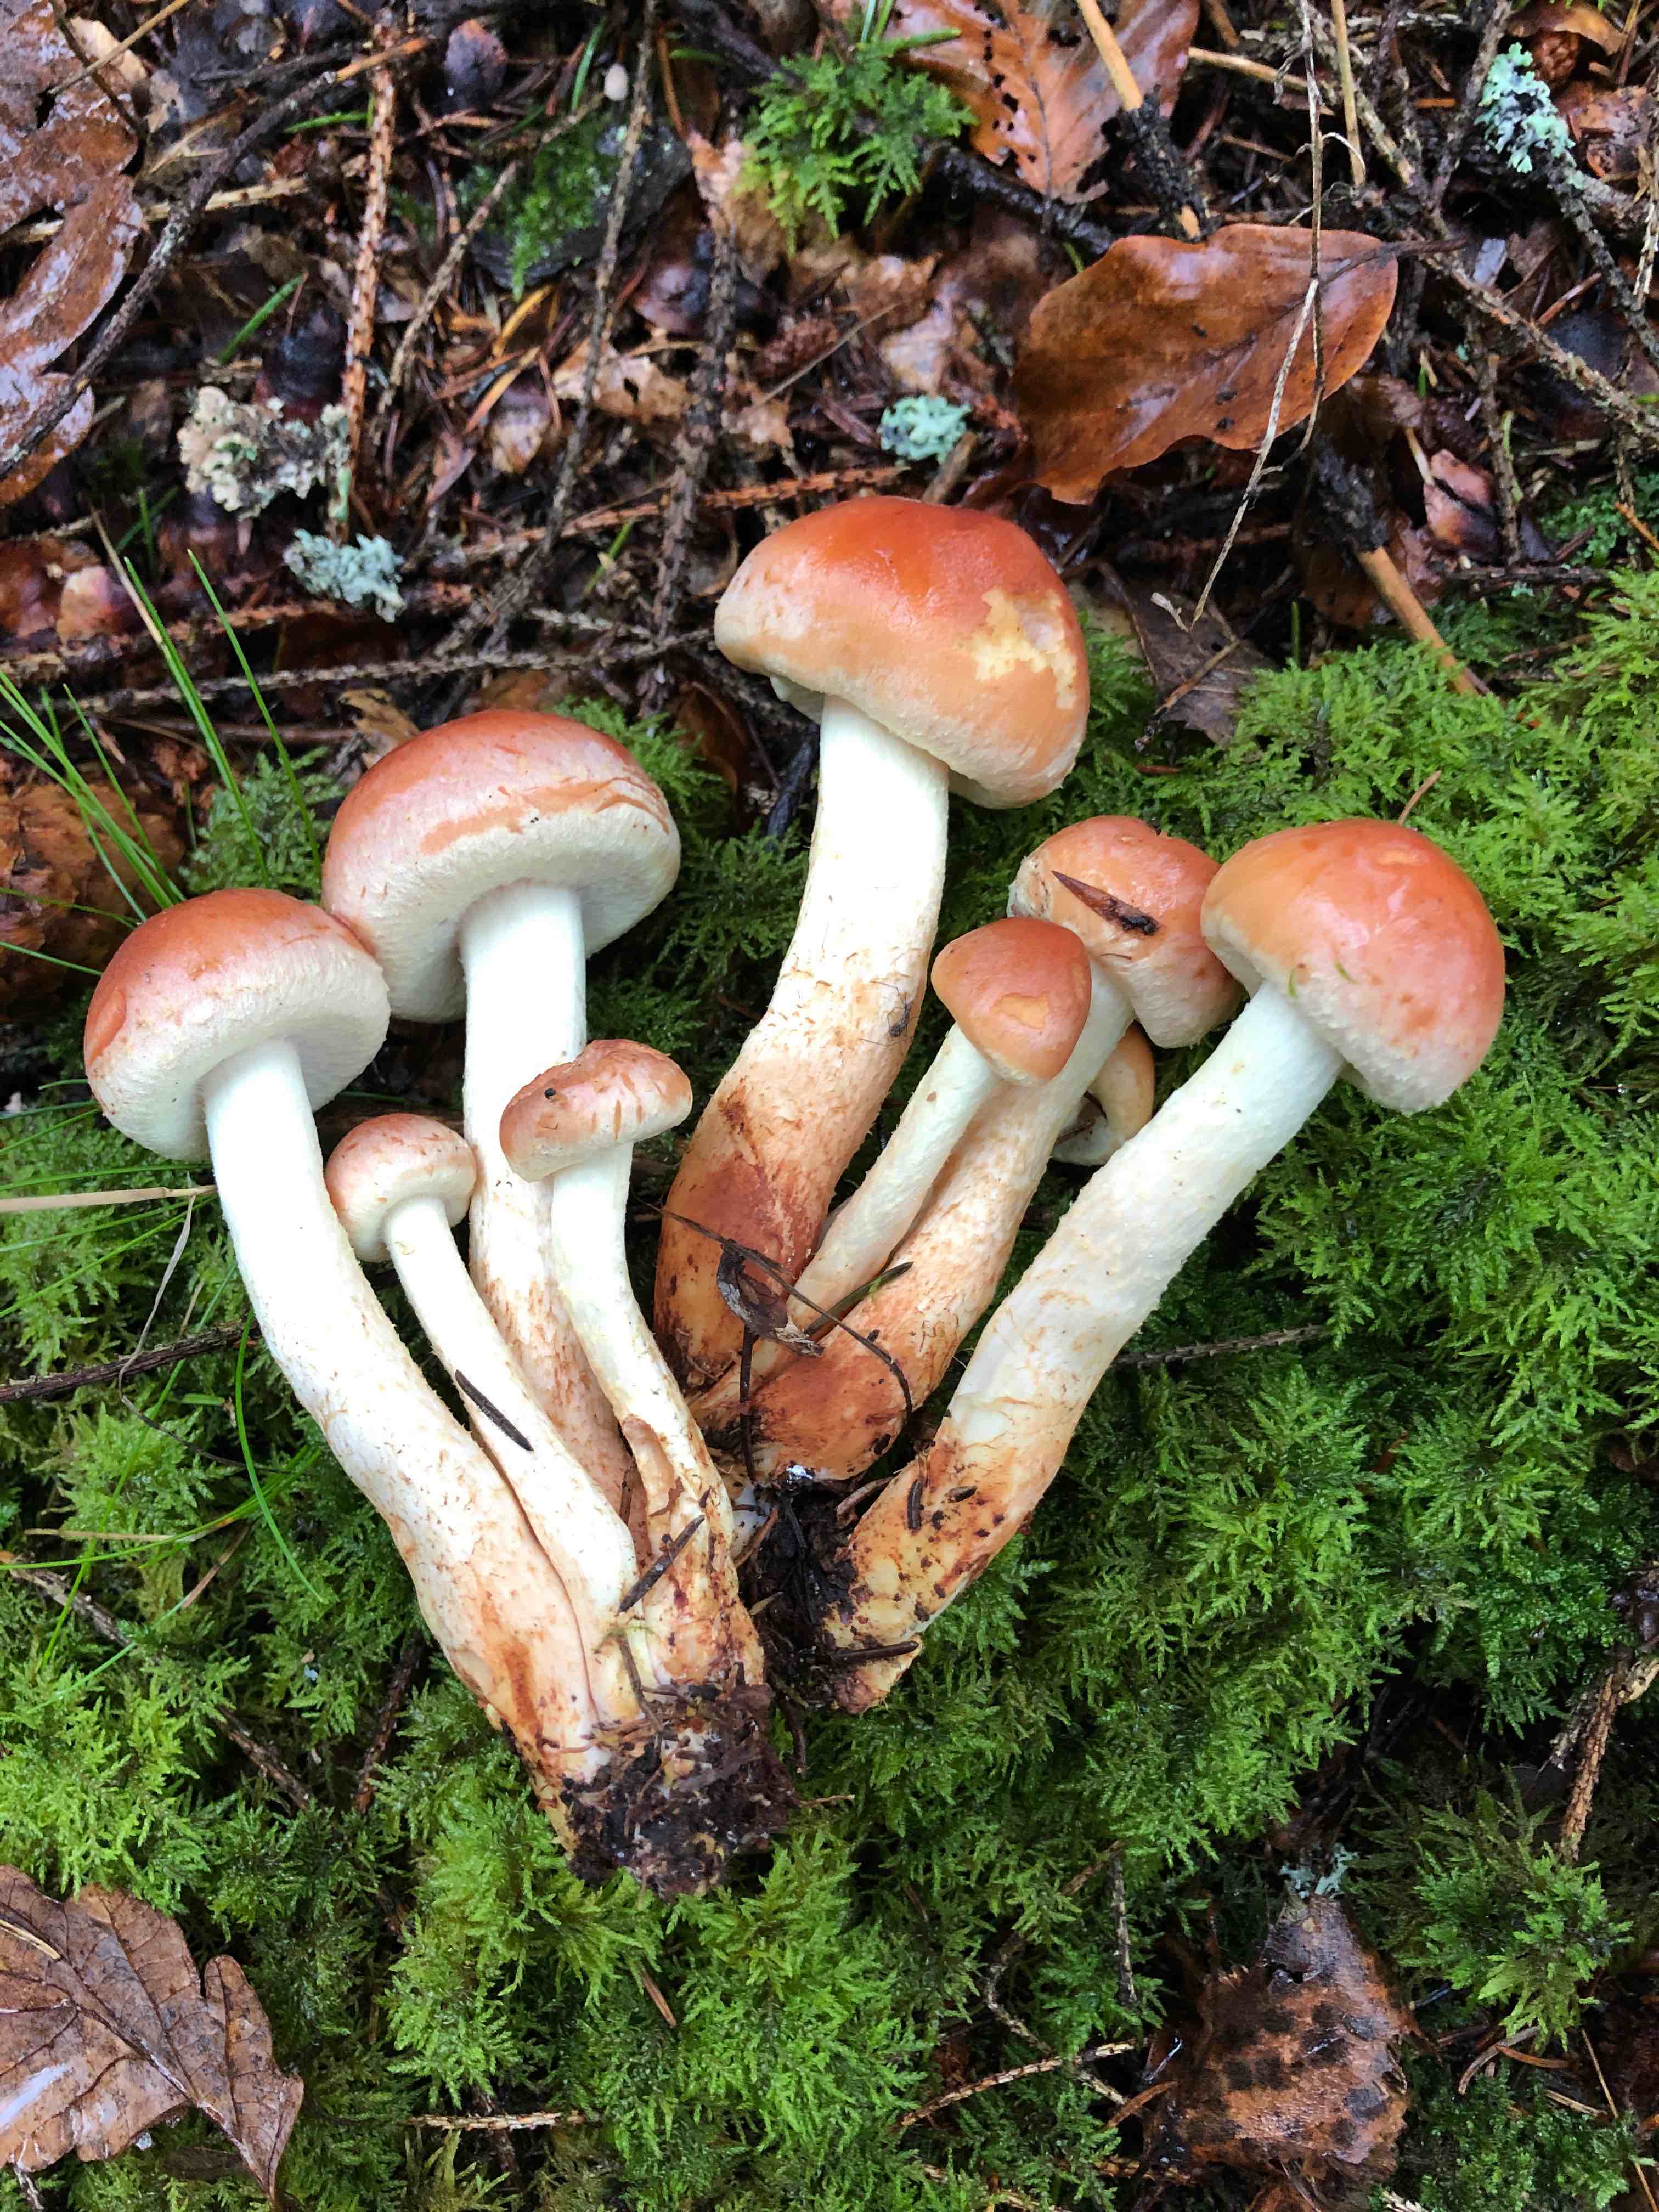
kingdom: Fungi
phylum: Basidiomycota
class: Agaricomycetes
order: Agaricales
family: Strophariaceae
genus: Hypholoma
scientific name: Hypholoma lateritium
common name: teglrød svovlhat
